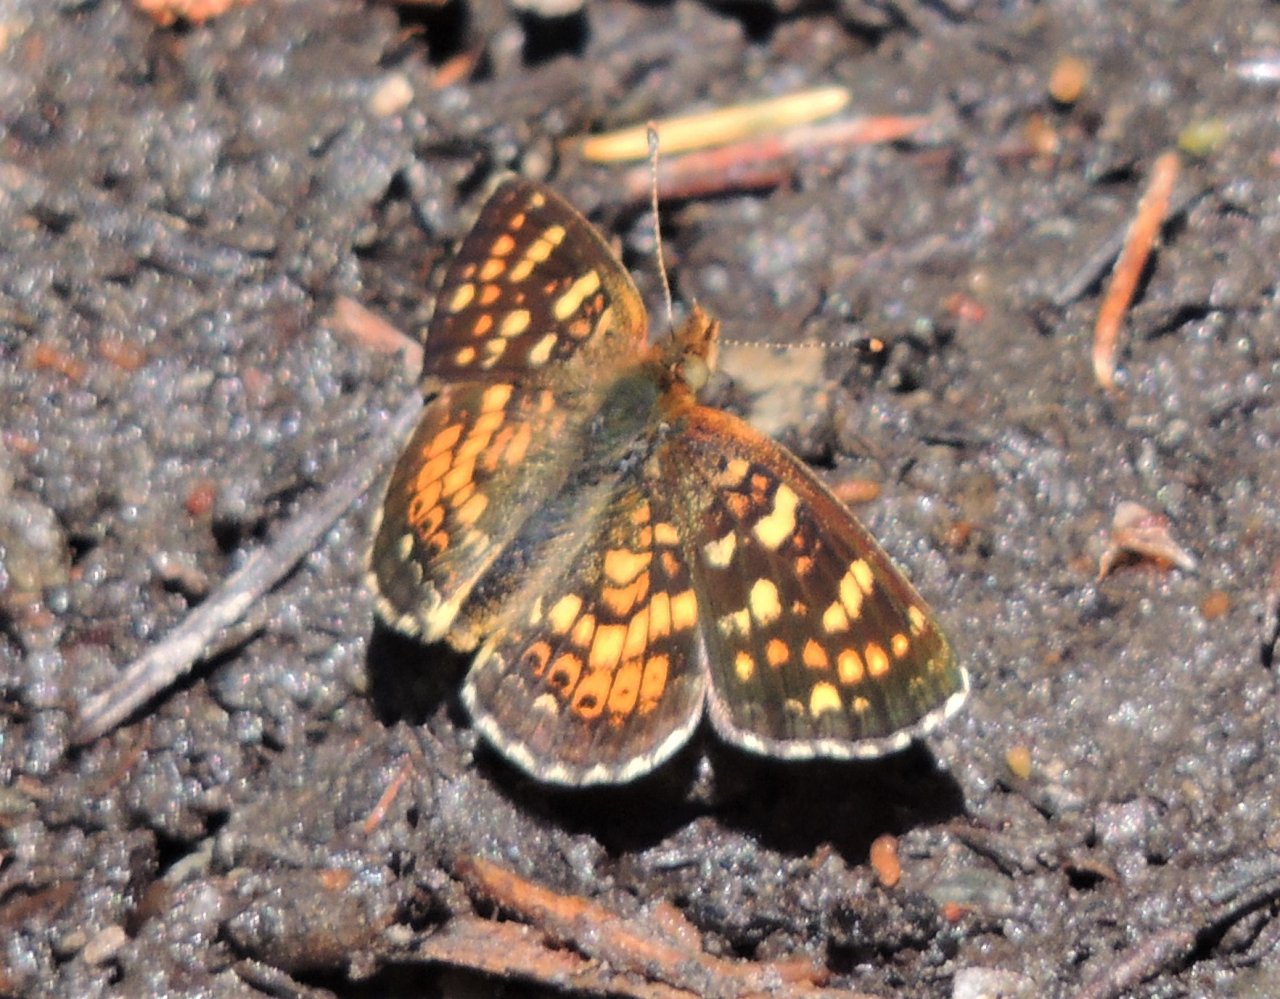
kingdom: Animalia
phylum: Arthropoda
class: Insecta
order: Lepidoptera
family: Nymphalidae
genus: Phyciodes
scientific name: Phyciodes tharos
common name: Field Crescent
